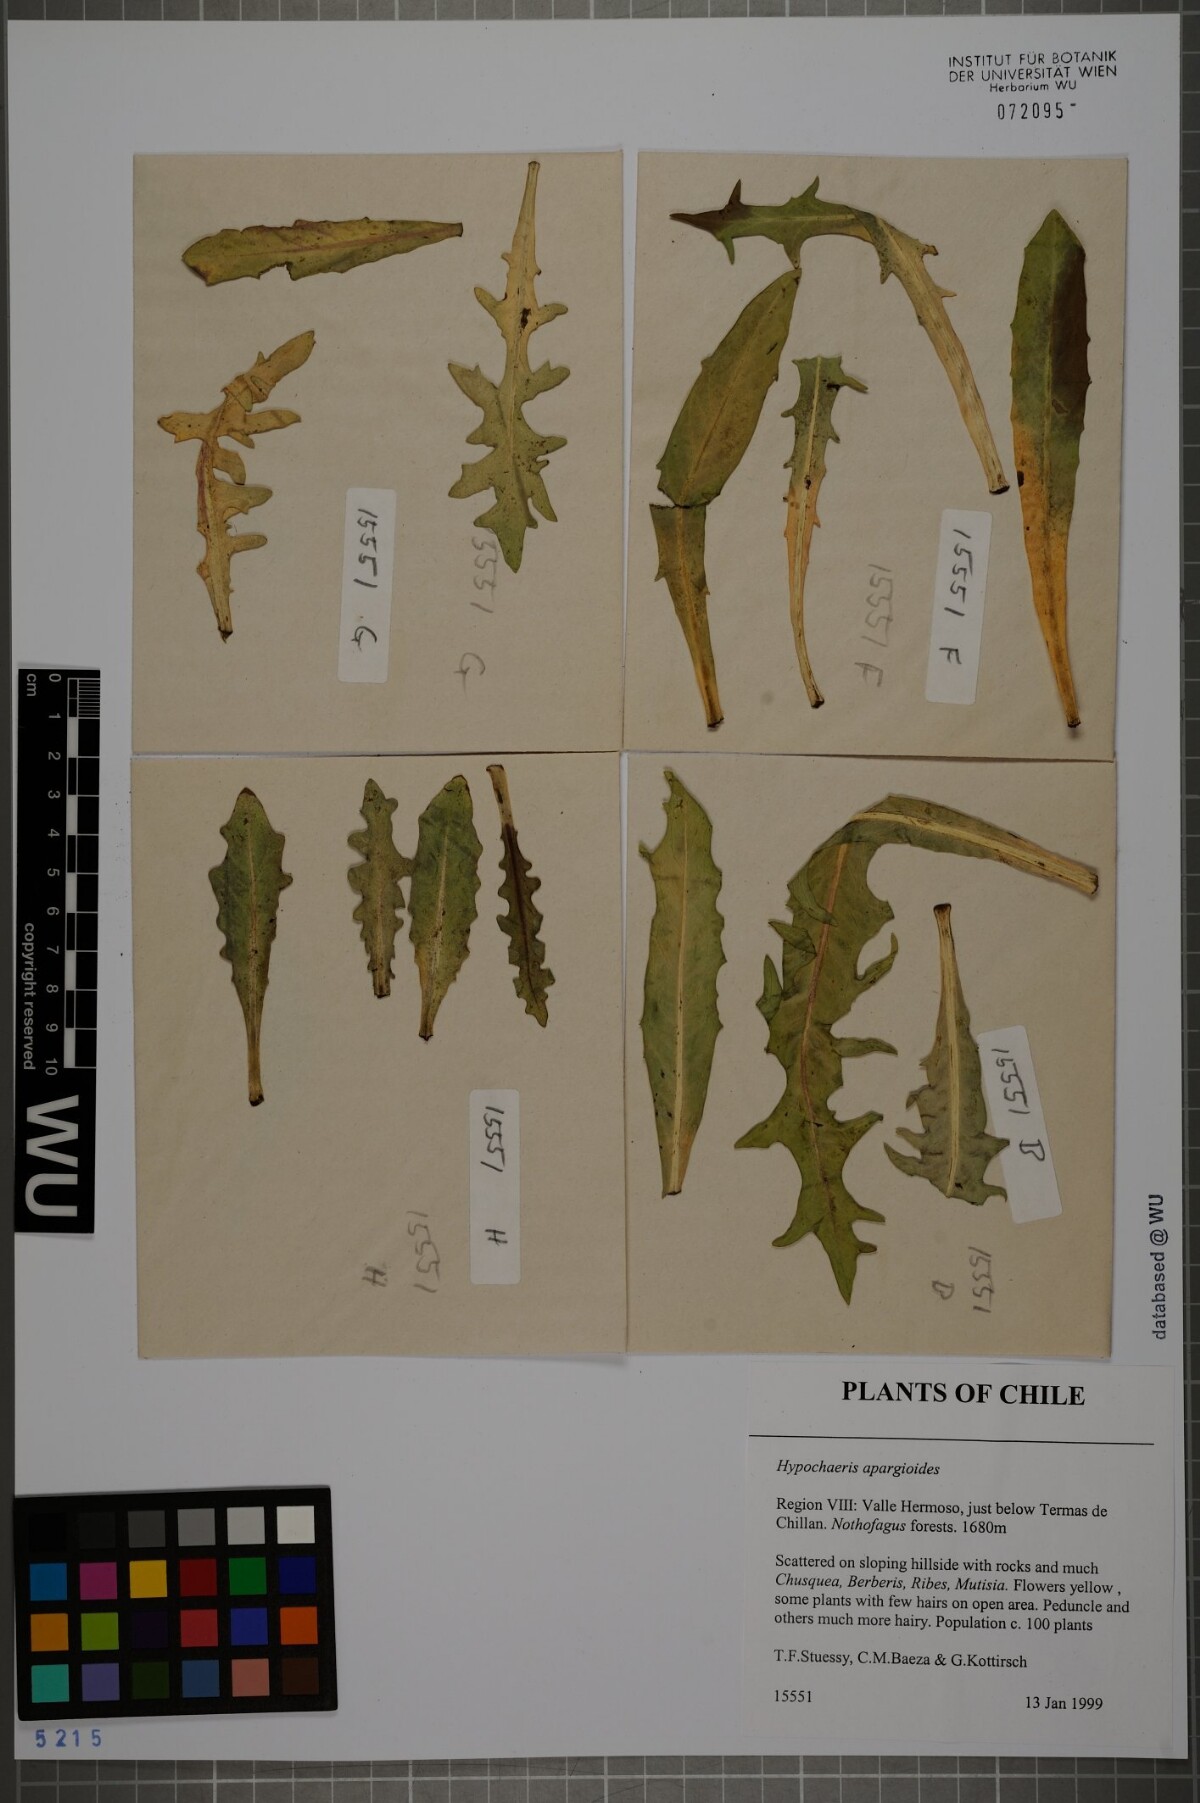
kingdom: Plantae
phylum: Tracheophyta
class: Magnoliopsida
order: Asterales
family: Asteraceae
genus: Hypochaeris
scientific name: Hypochaeris apargioides
